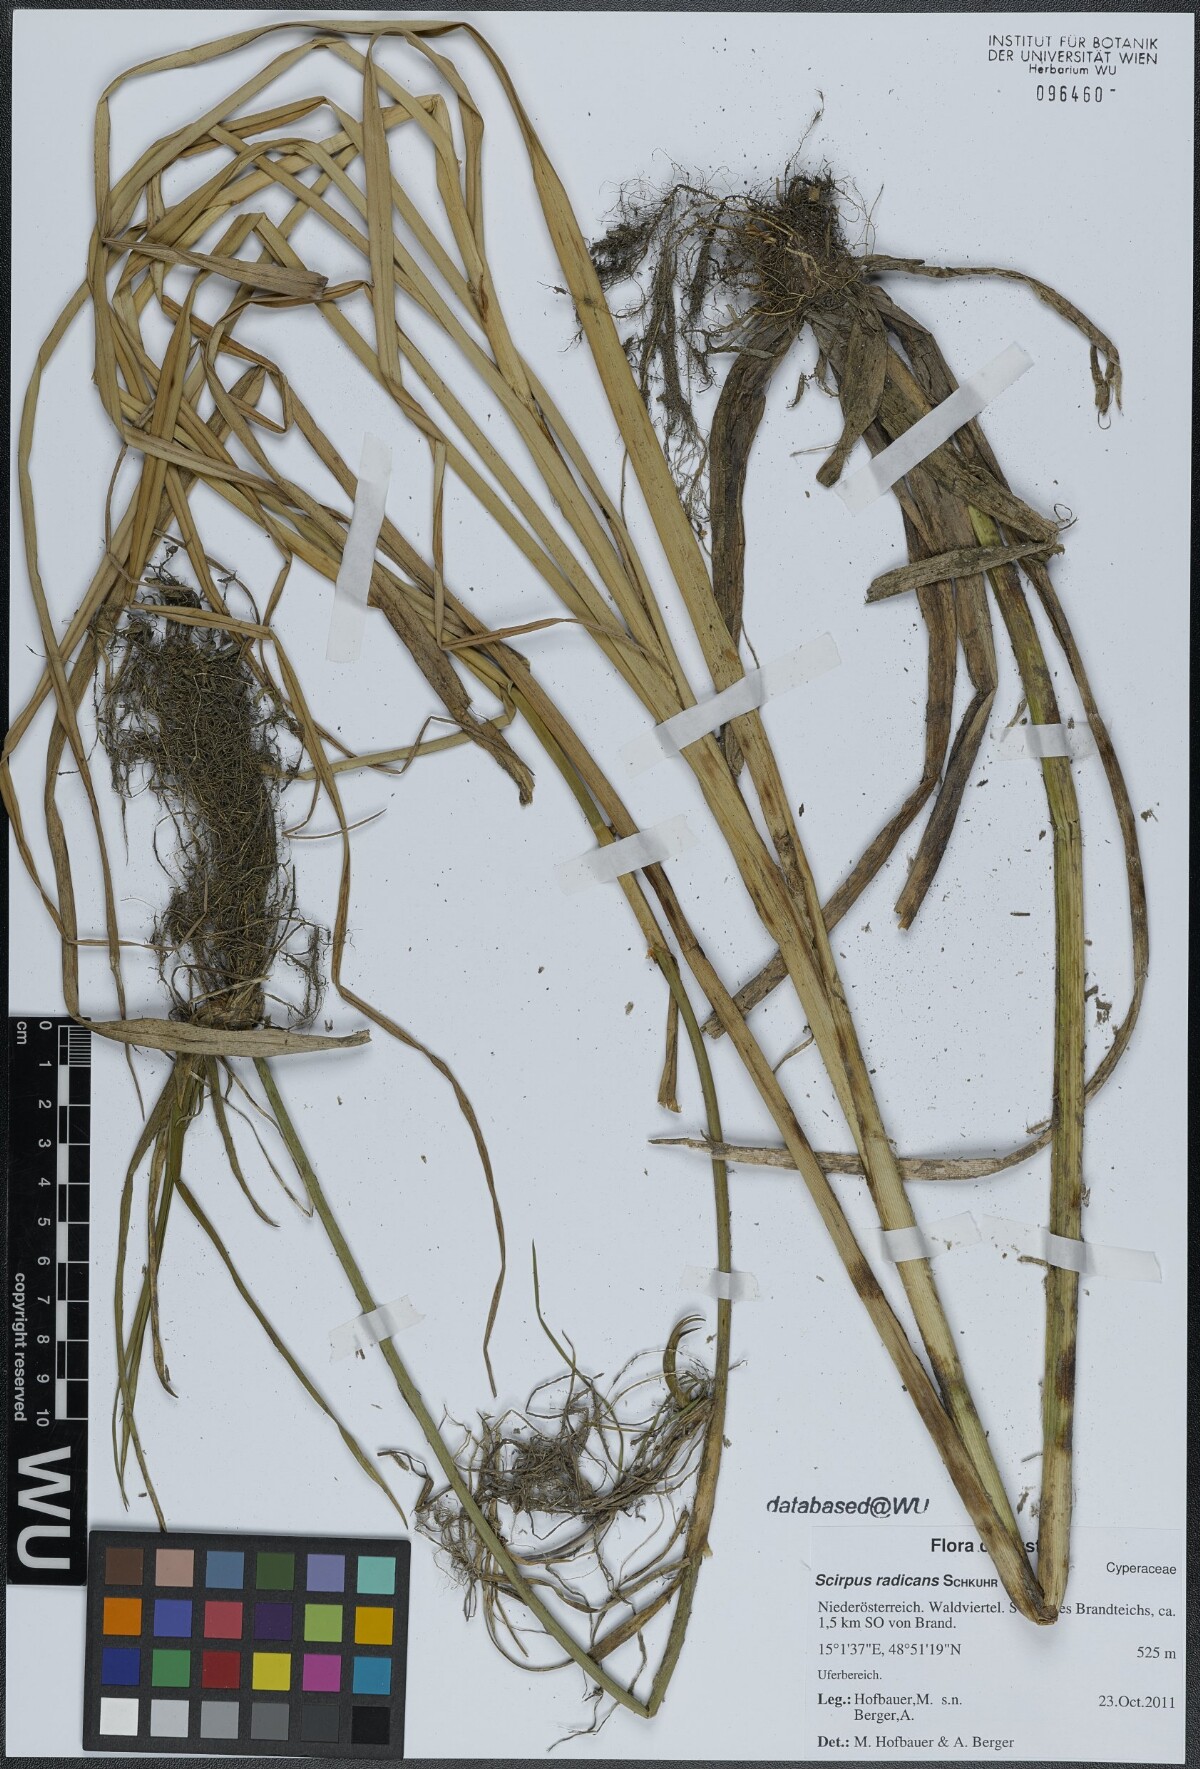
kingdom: Plantae
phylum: Tracheophyta
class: Liliopsida
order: Poales
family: Cyperaceae
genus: Scirpus
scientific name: Scirpus radicans
